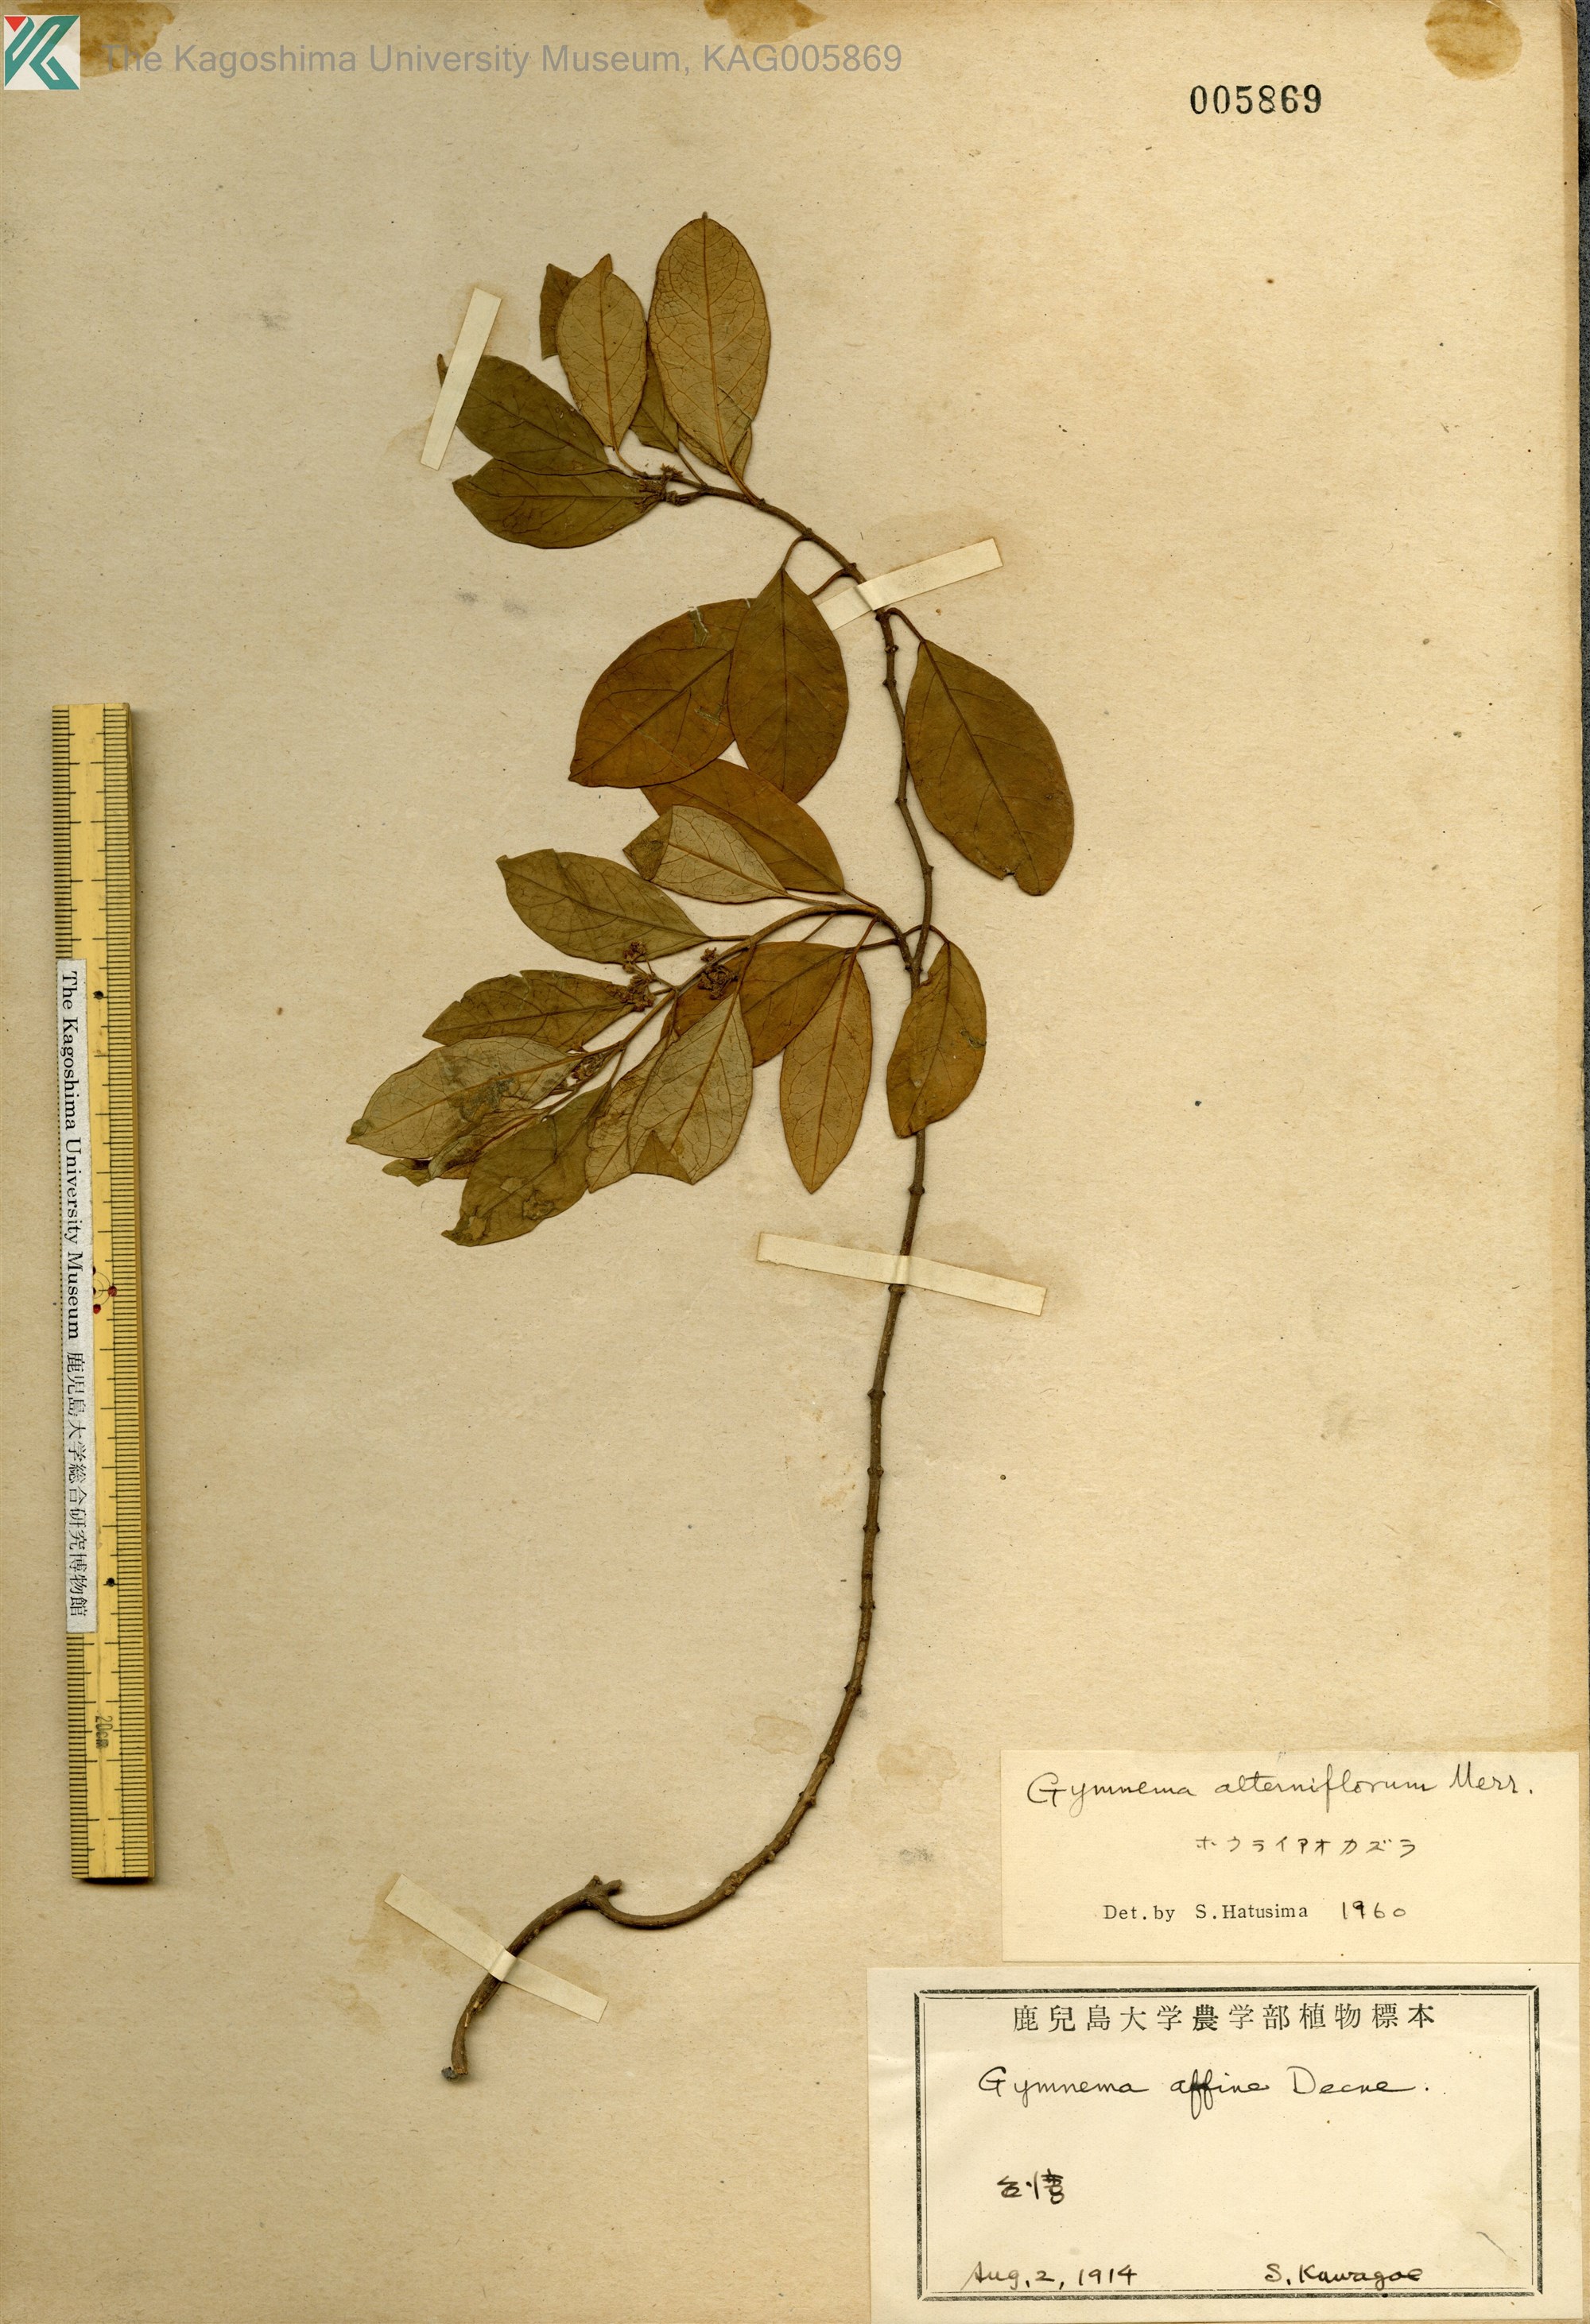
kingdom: Plantae
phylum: Tracheophyta
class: Magnoliopsida
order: Gentianales
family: Apocynaceae
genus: Gymnema
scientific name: Gymnema sylvestre
